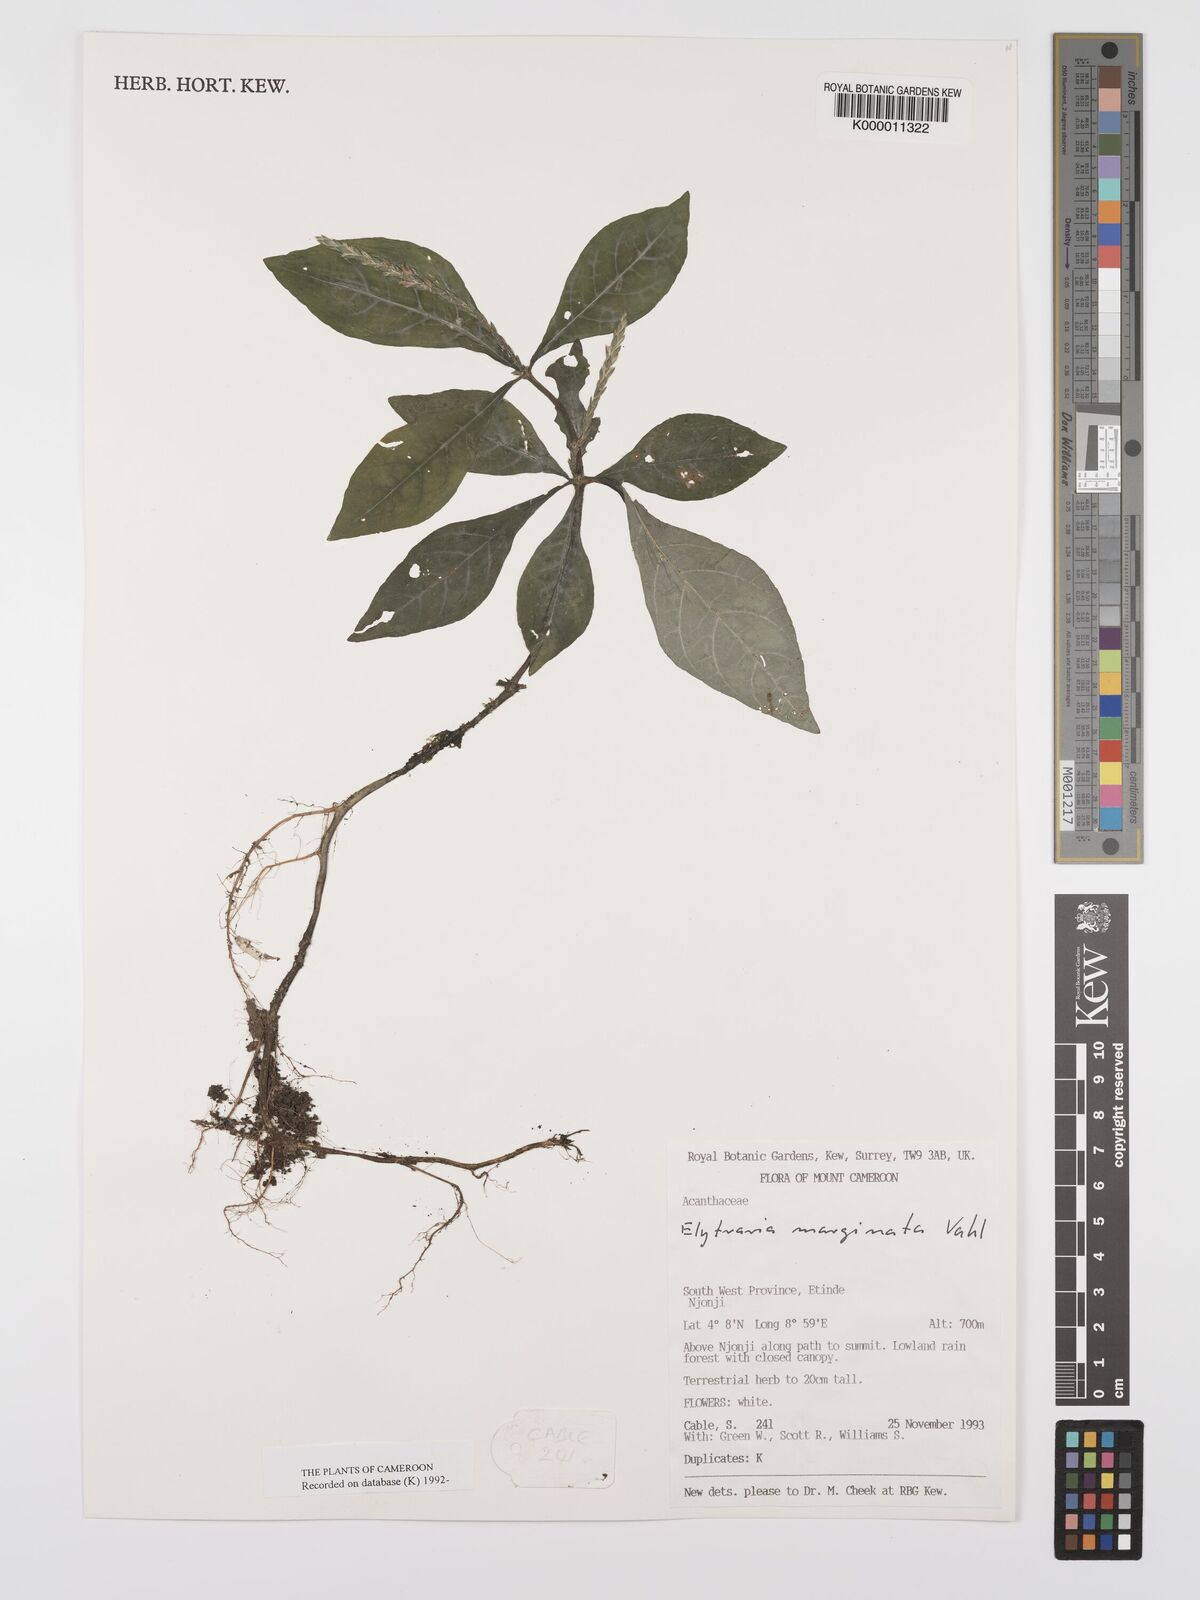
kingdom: Plantae
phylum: Tracheophyta
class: Magnoliopsida
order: Lamiales
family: Acanthaceae
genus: Elytraria
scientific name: Elytraria marginata
